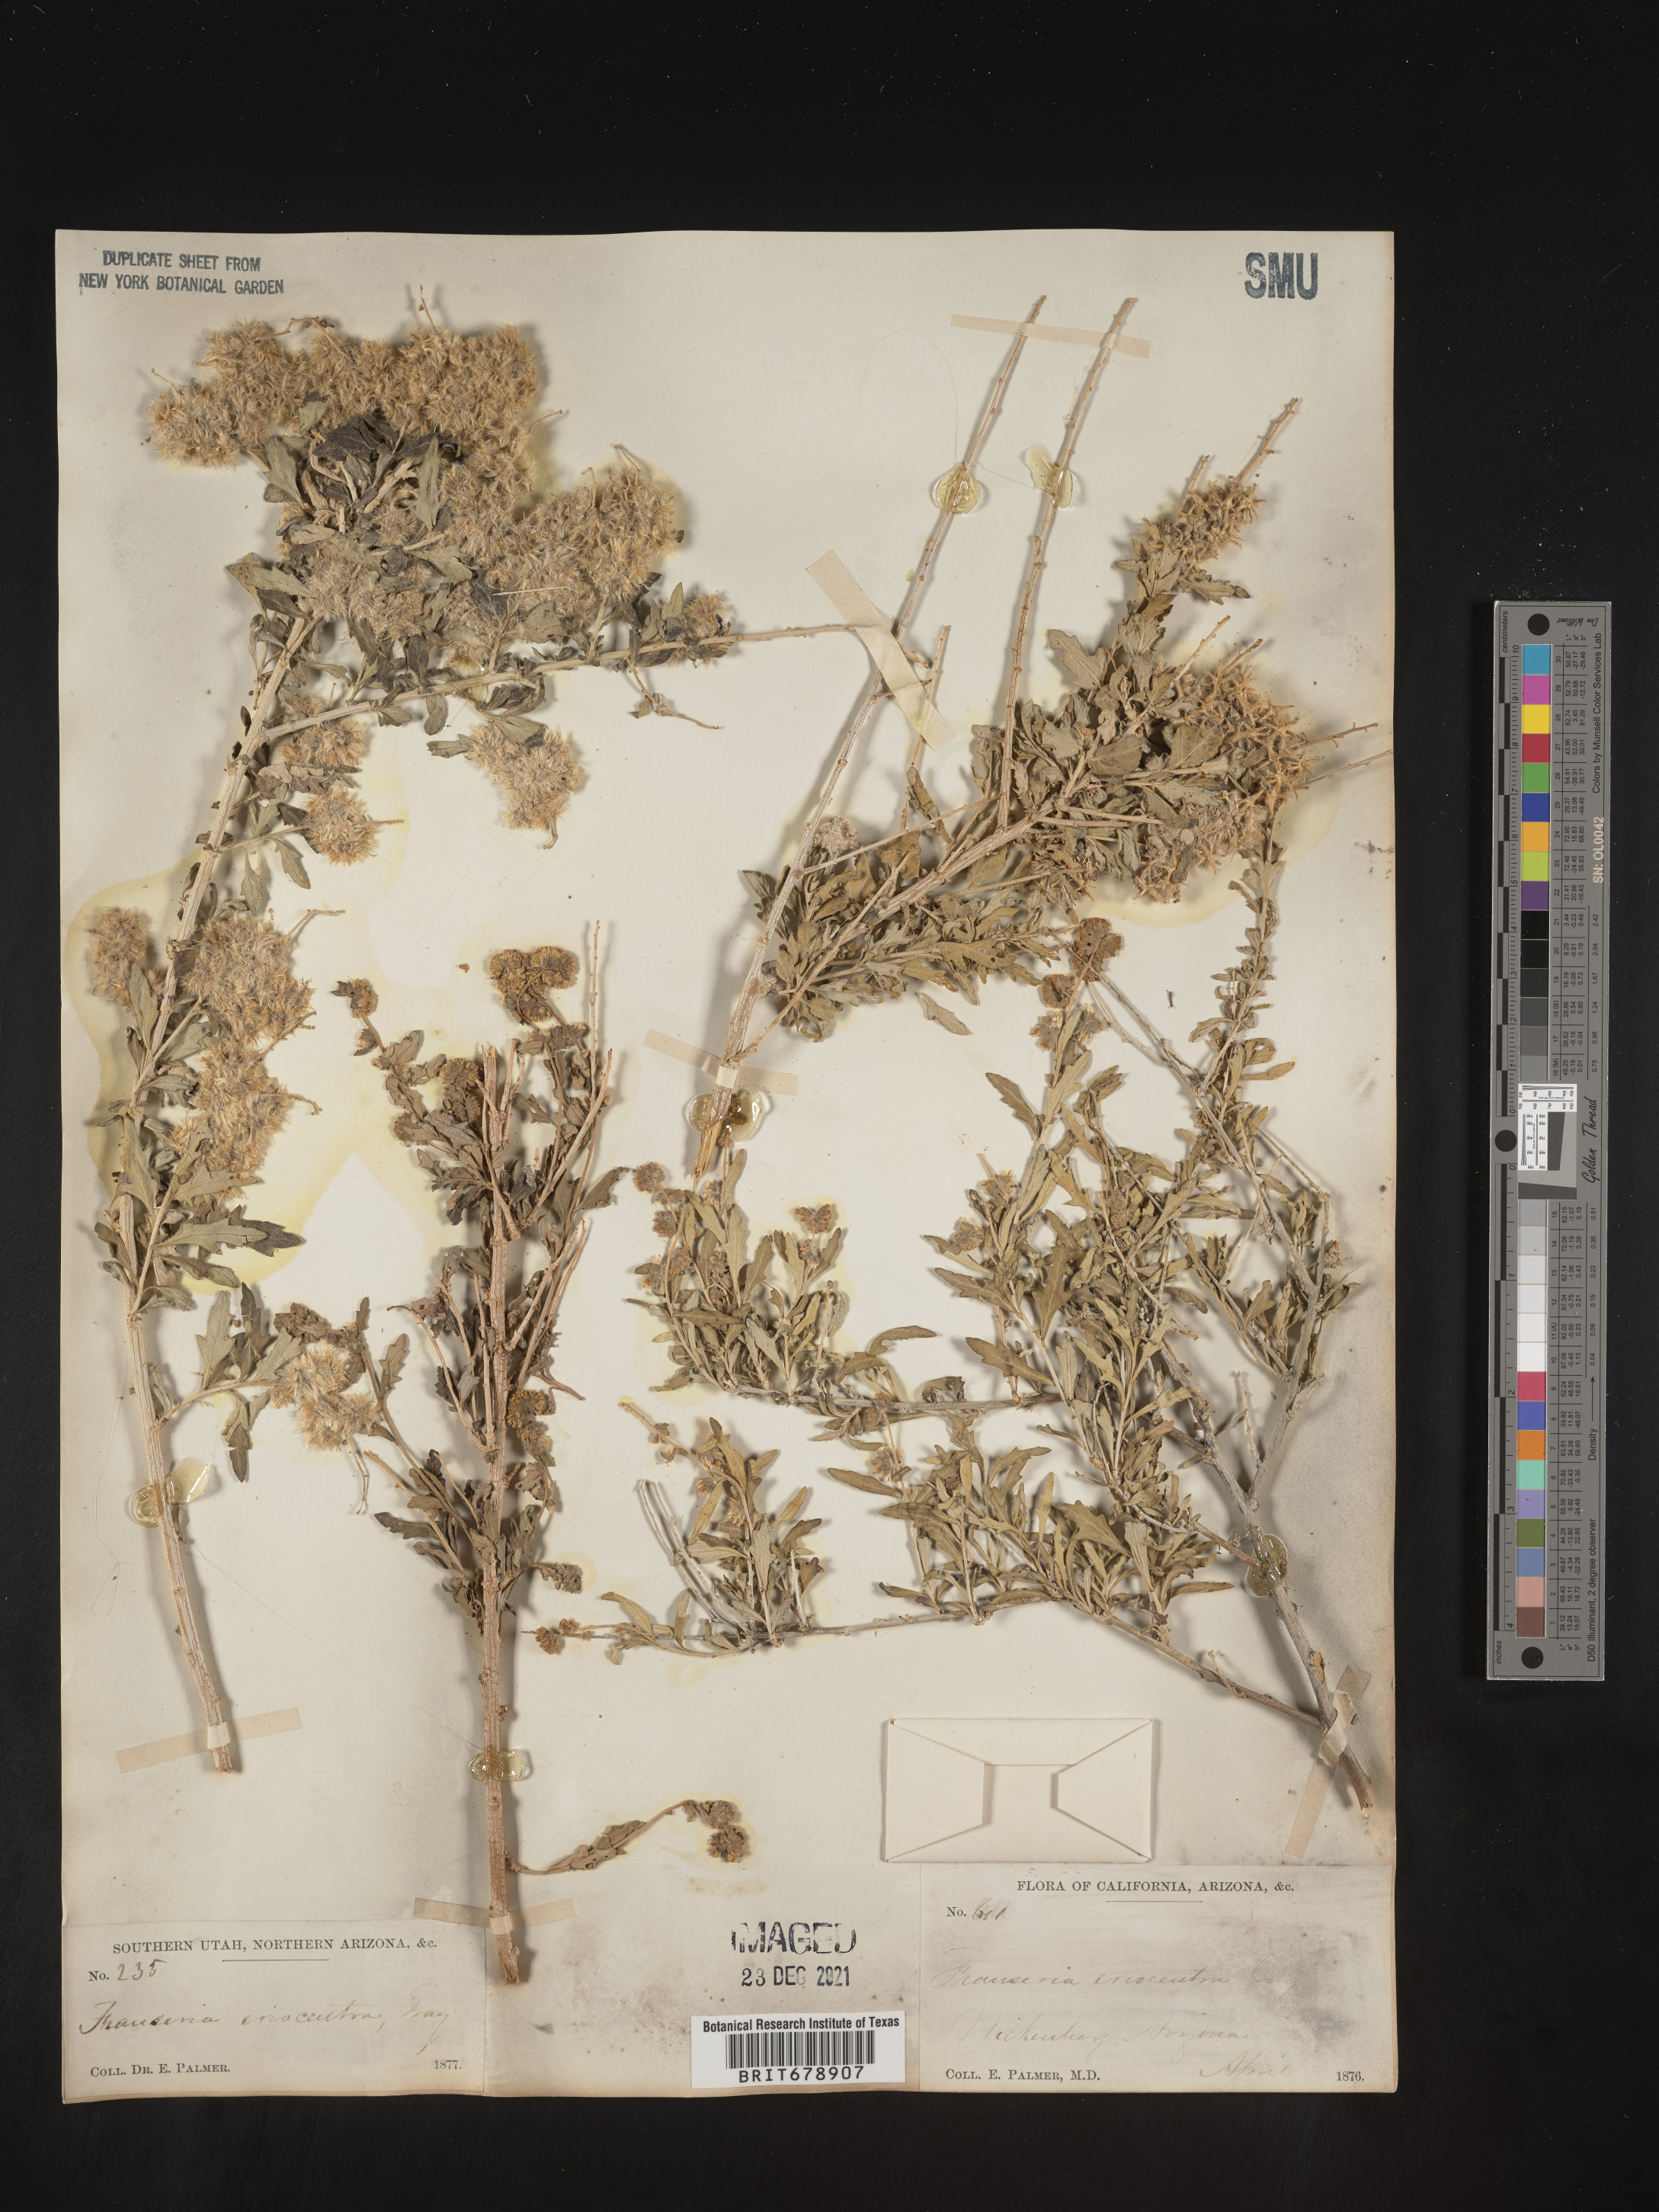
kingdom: Plantae
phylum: Tracheophyta
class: Magnoliopsida
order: Asterales
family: Asteraceae
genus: Ambrosia
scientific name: Ambrosia eriocentra
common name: Woolly bur-sage
